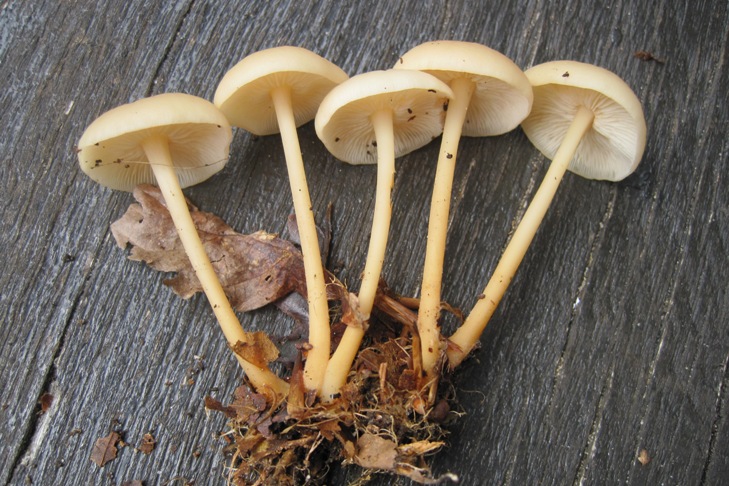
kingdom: Fungi
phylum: Basidiomycota
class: Agaricomycetes
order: Agaricales
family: Omphalotaceae
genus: Gymnopus
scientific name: Gymnopus aquosus
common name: bleg fladhat
